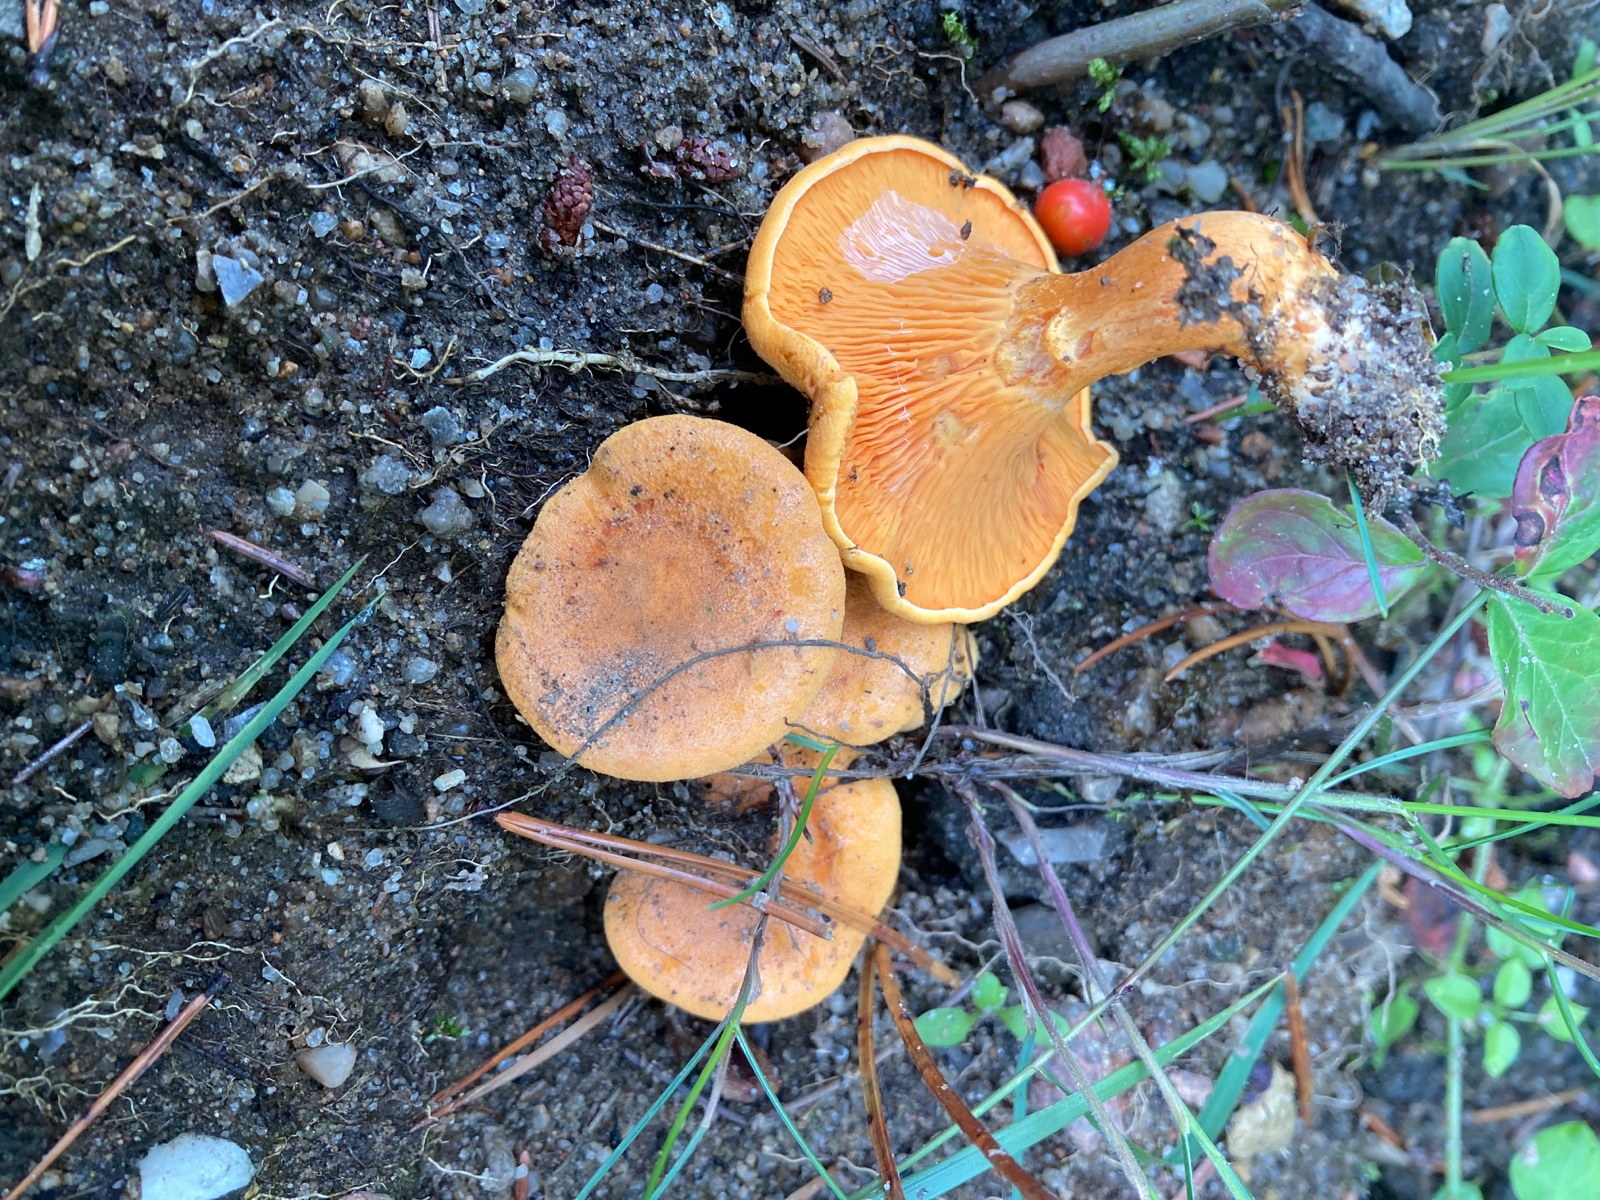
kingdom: Fungi
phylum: Basidiomycota
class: Agaricomycetes
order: Boletales
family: Hygrophoropsidaceae
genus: Hygrophoropsis
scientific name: Hygrophoropsis aurantiaca
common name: almindelig orangekantarel
